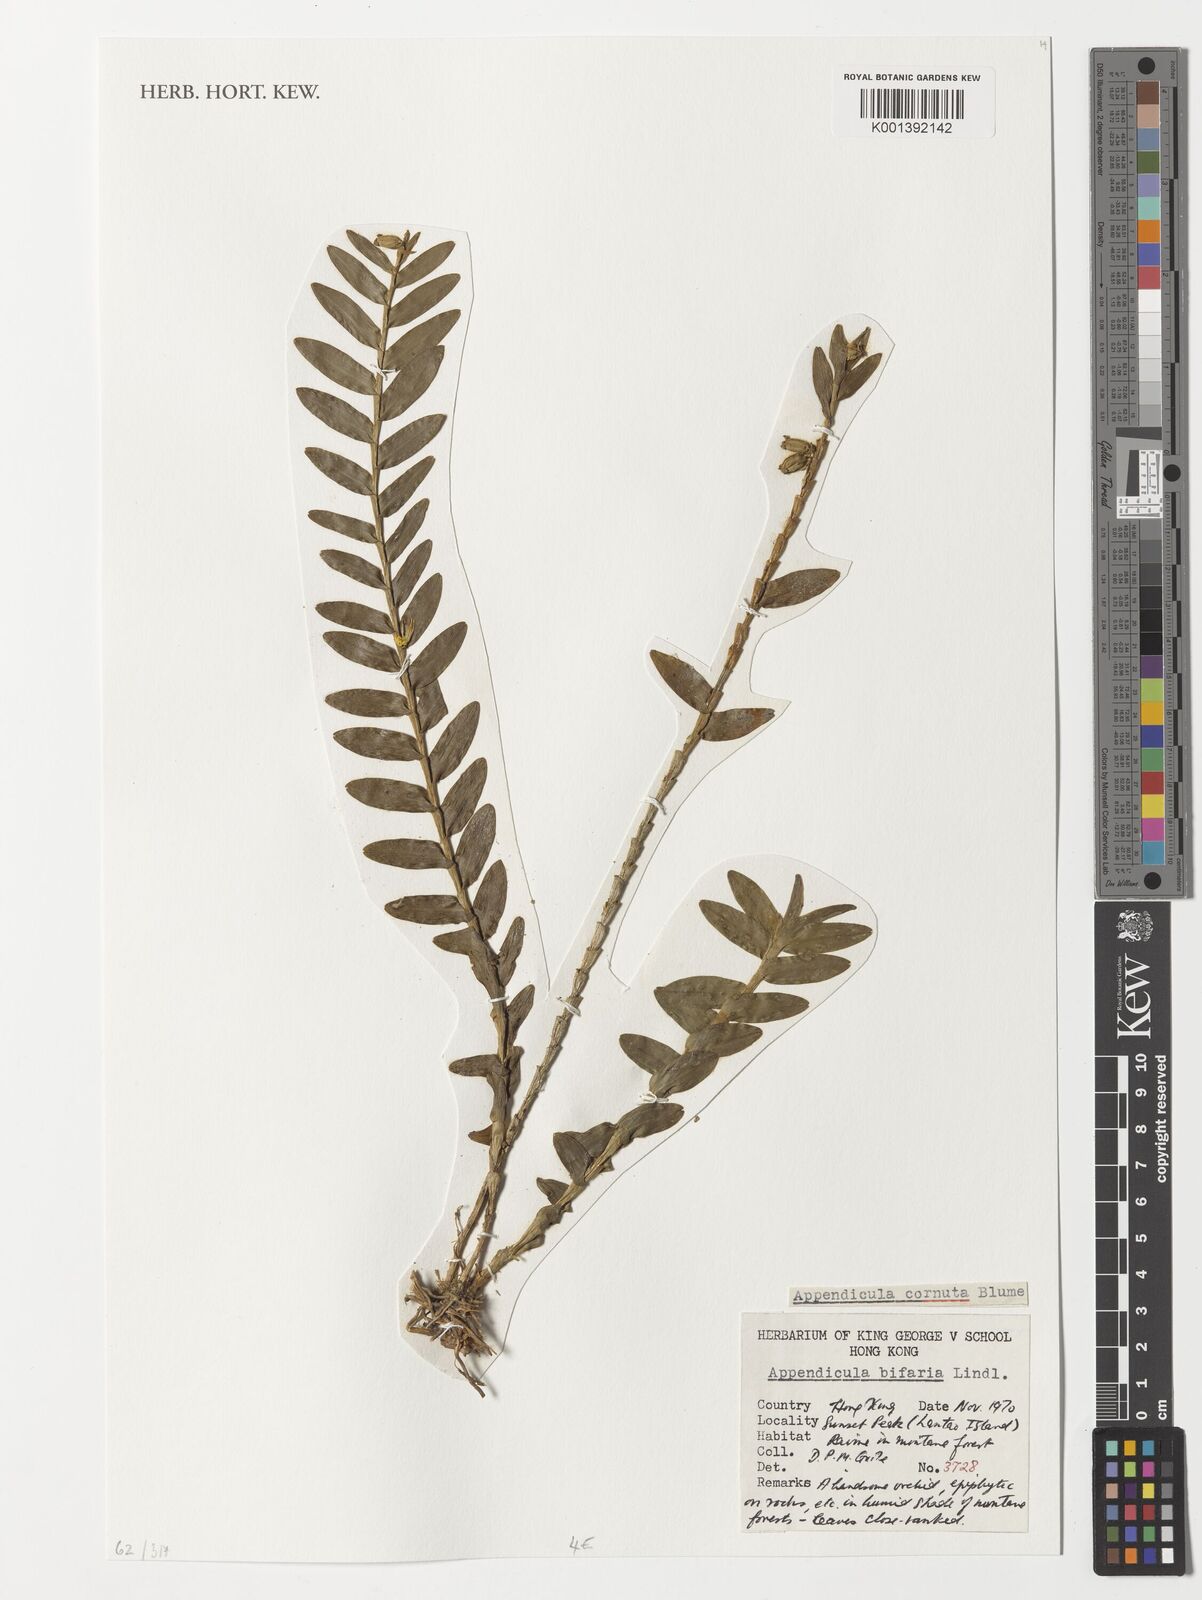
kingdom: Plantae
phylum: Tracheophyta
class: Liliopsida
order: Asparagales
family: Orchidaceae
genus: Appendicula
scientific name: Appendicula cornuta
